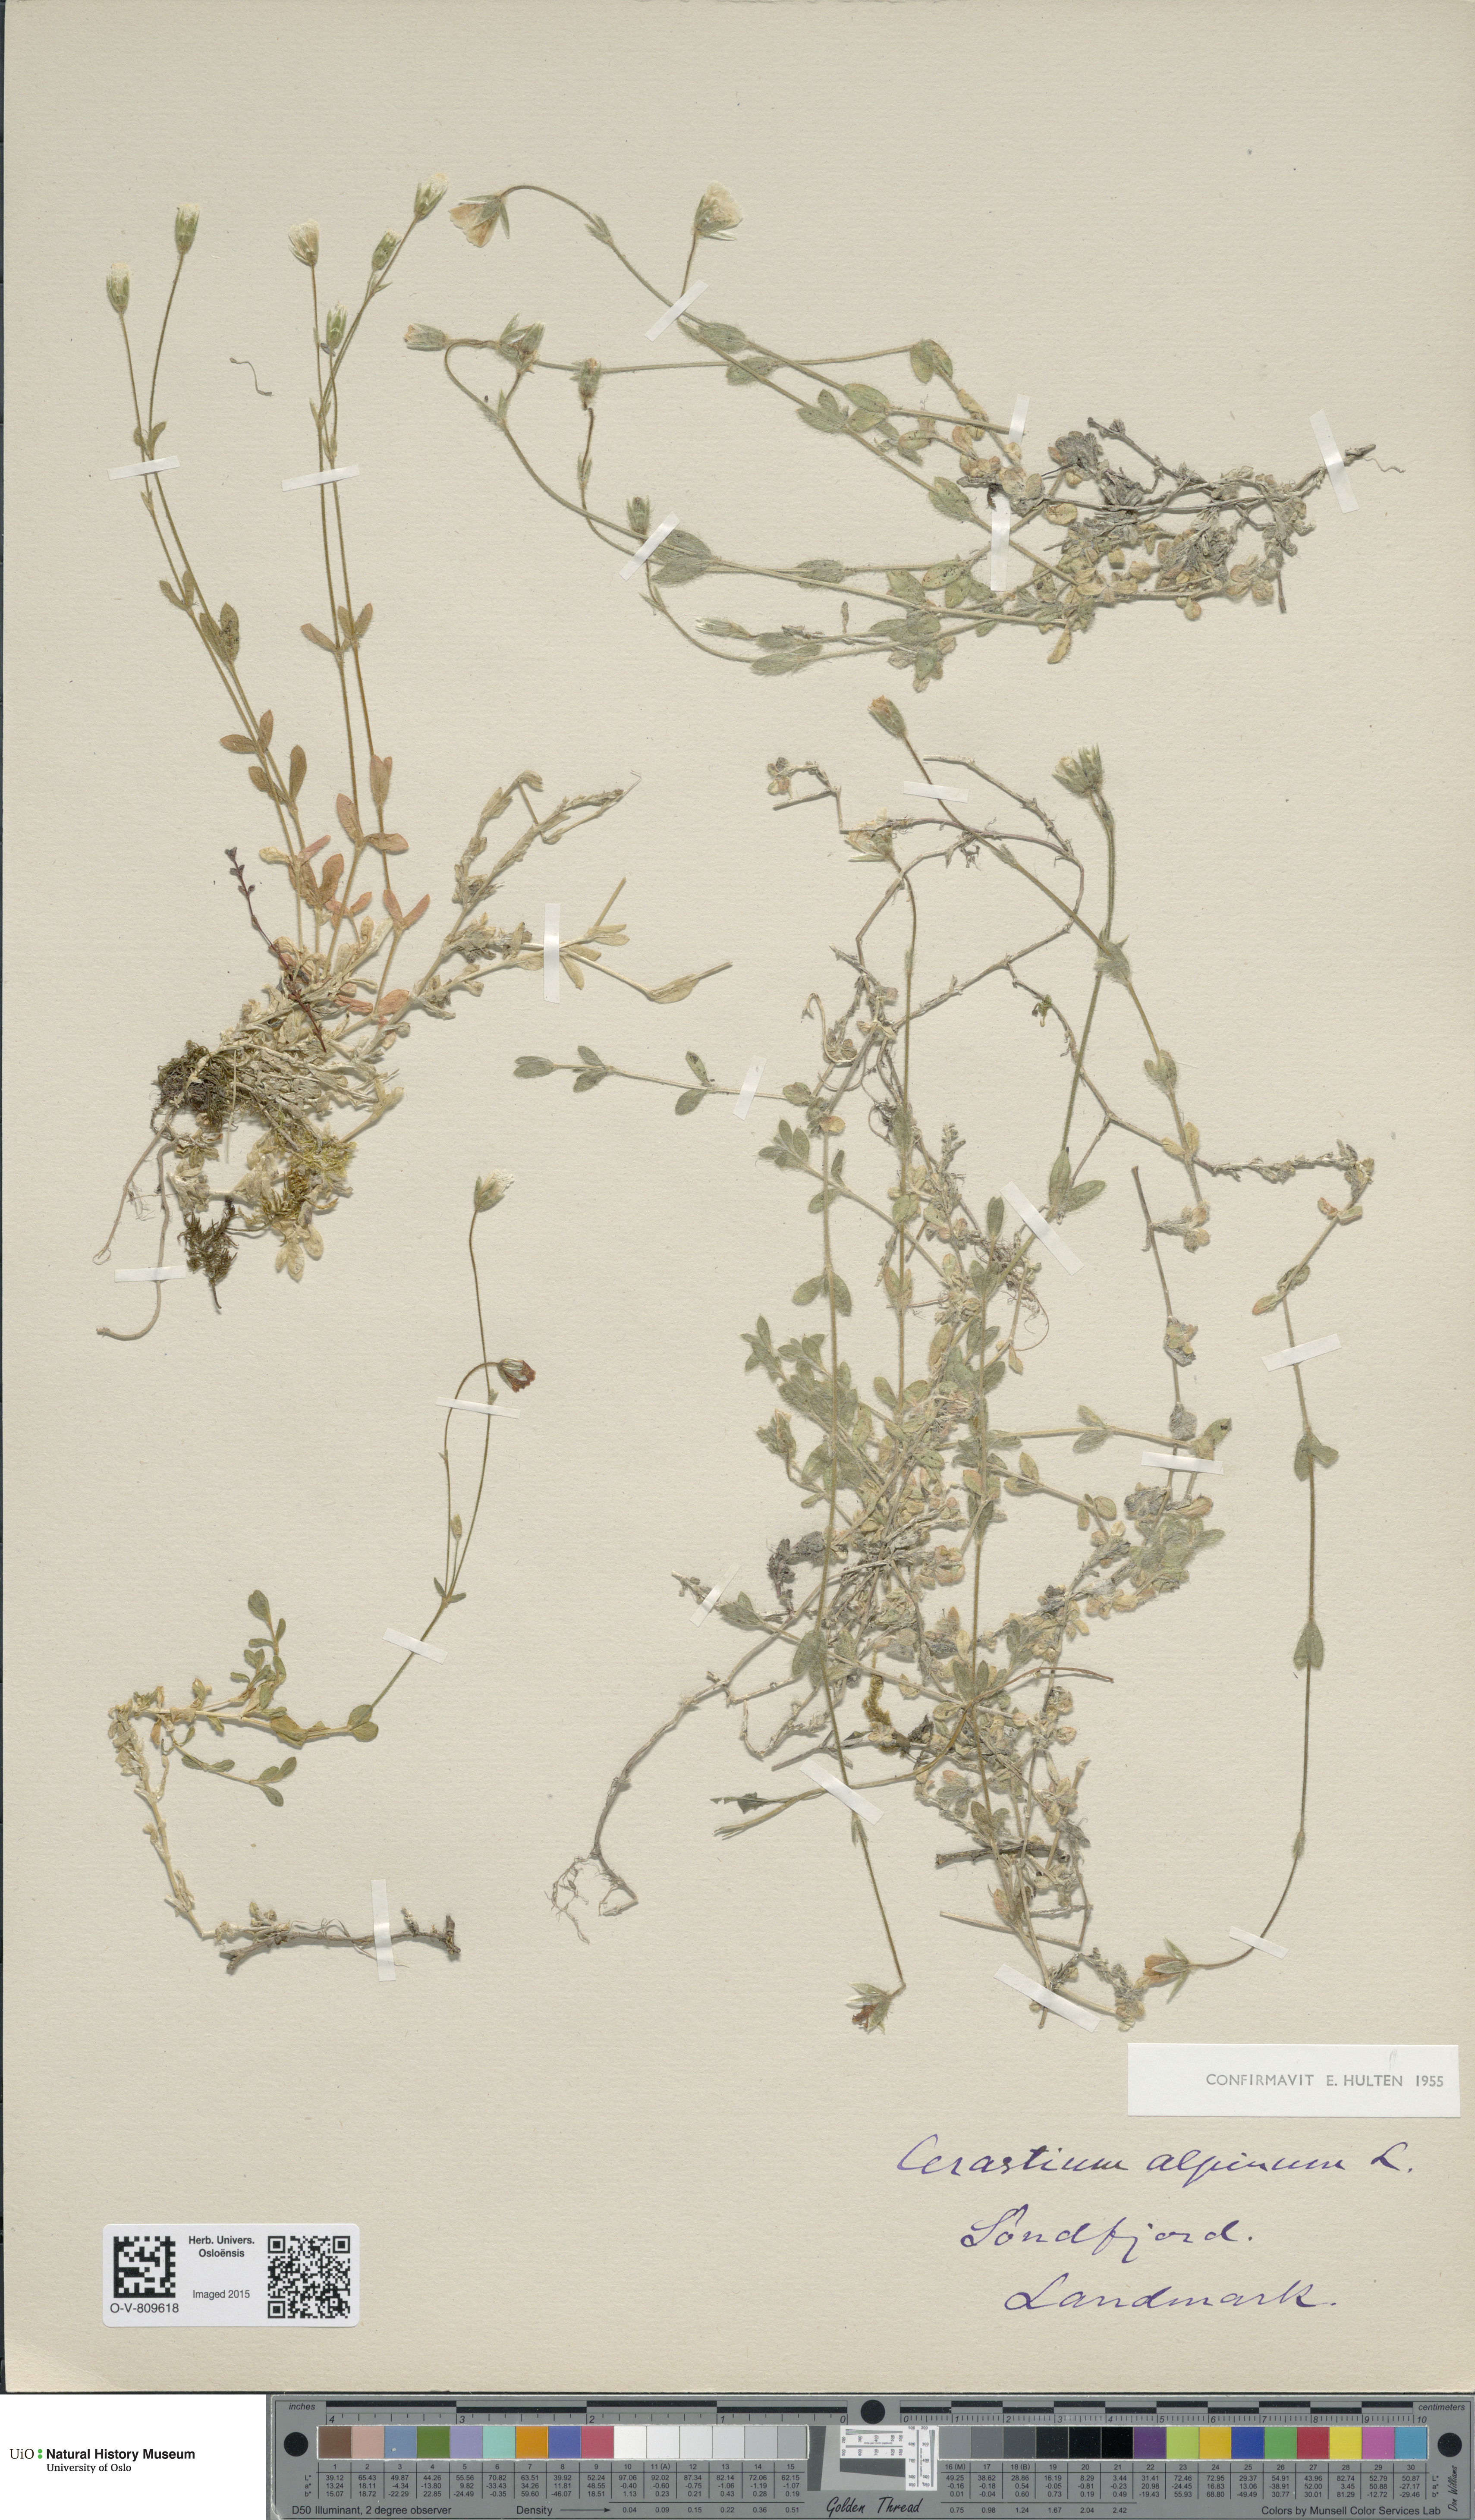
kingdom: Plantae
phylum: Tracheophyta
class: Magnoliopsida
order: Caryophyllales
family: Caryophyllaceae
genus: Cerastium
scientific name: Cerastium alpinum
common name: Alpine mouse-ear
